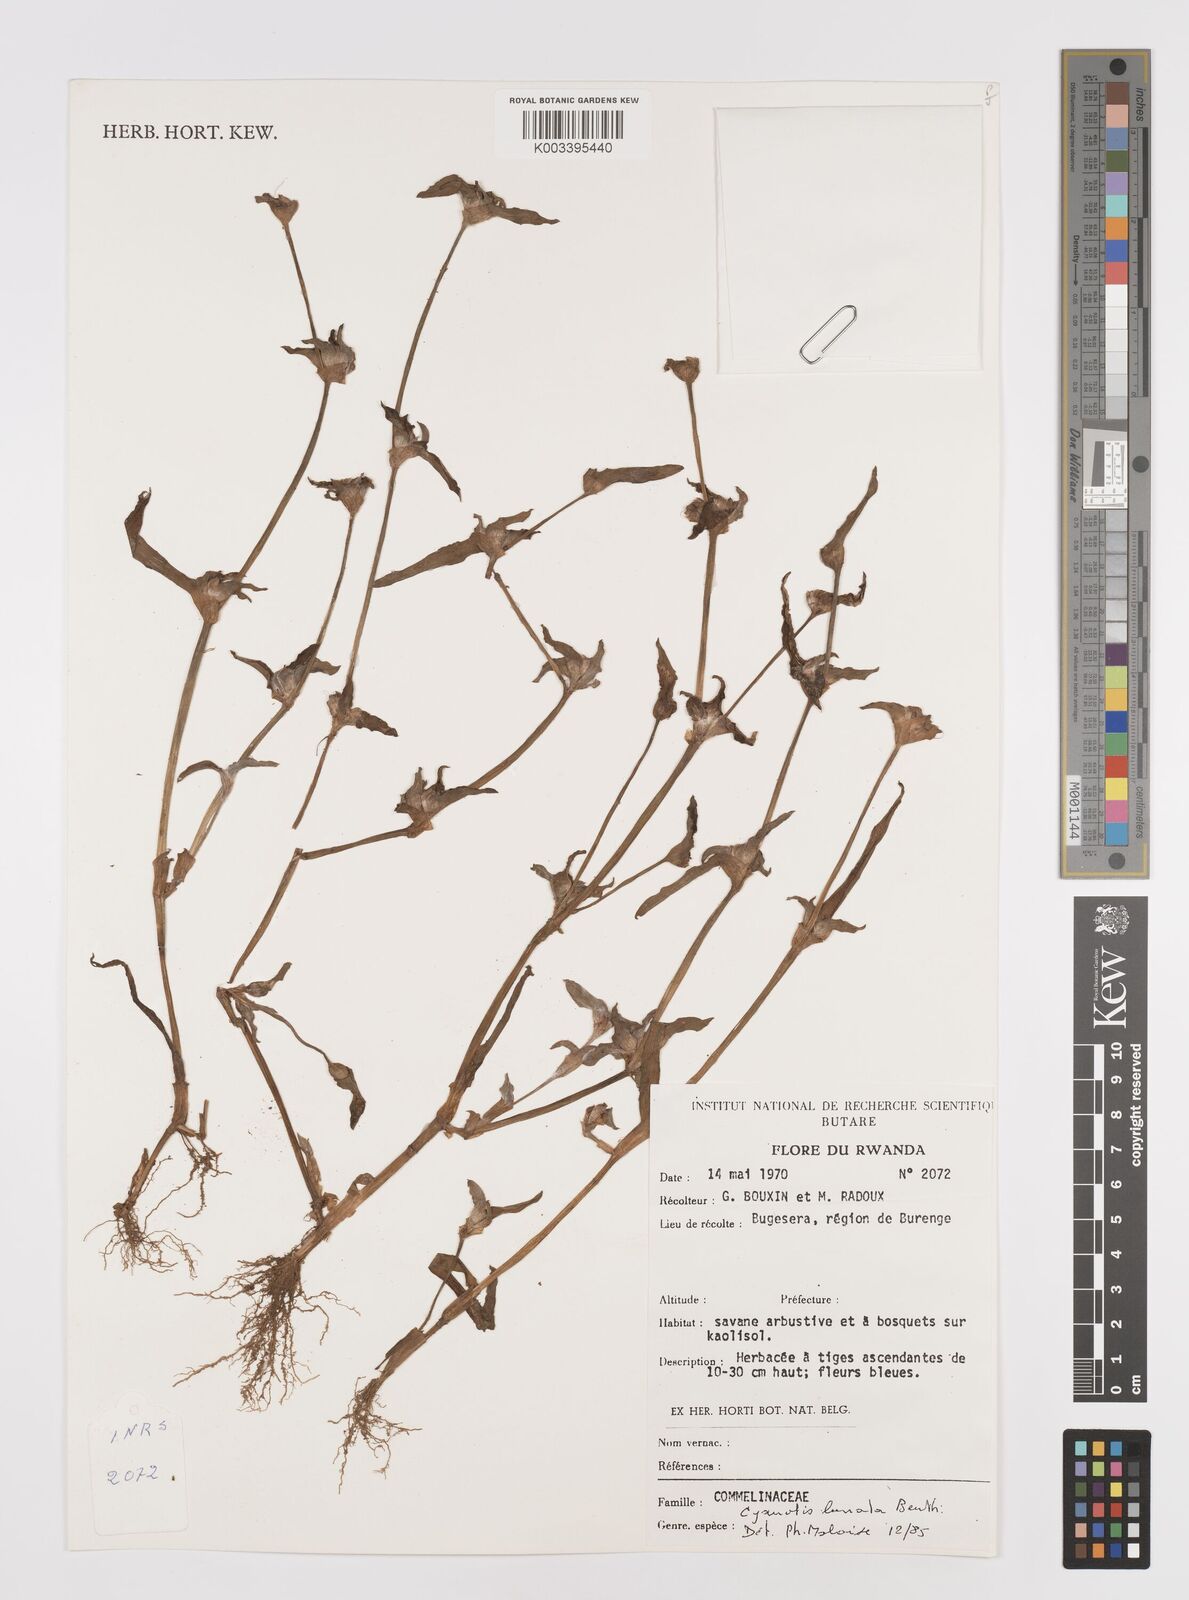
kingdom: Plantae
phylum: Tracheophyta
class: Liliopsida
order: Commelinales
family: Commelinaceae
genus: Cyanotis
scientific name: Cyanotis lanata
